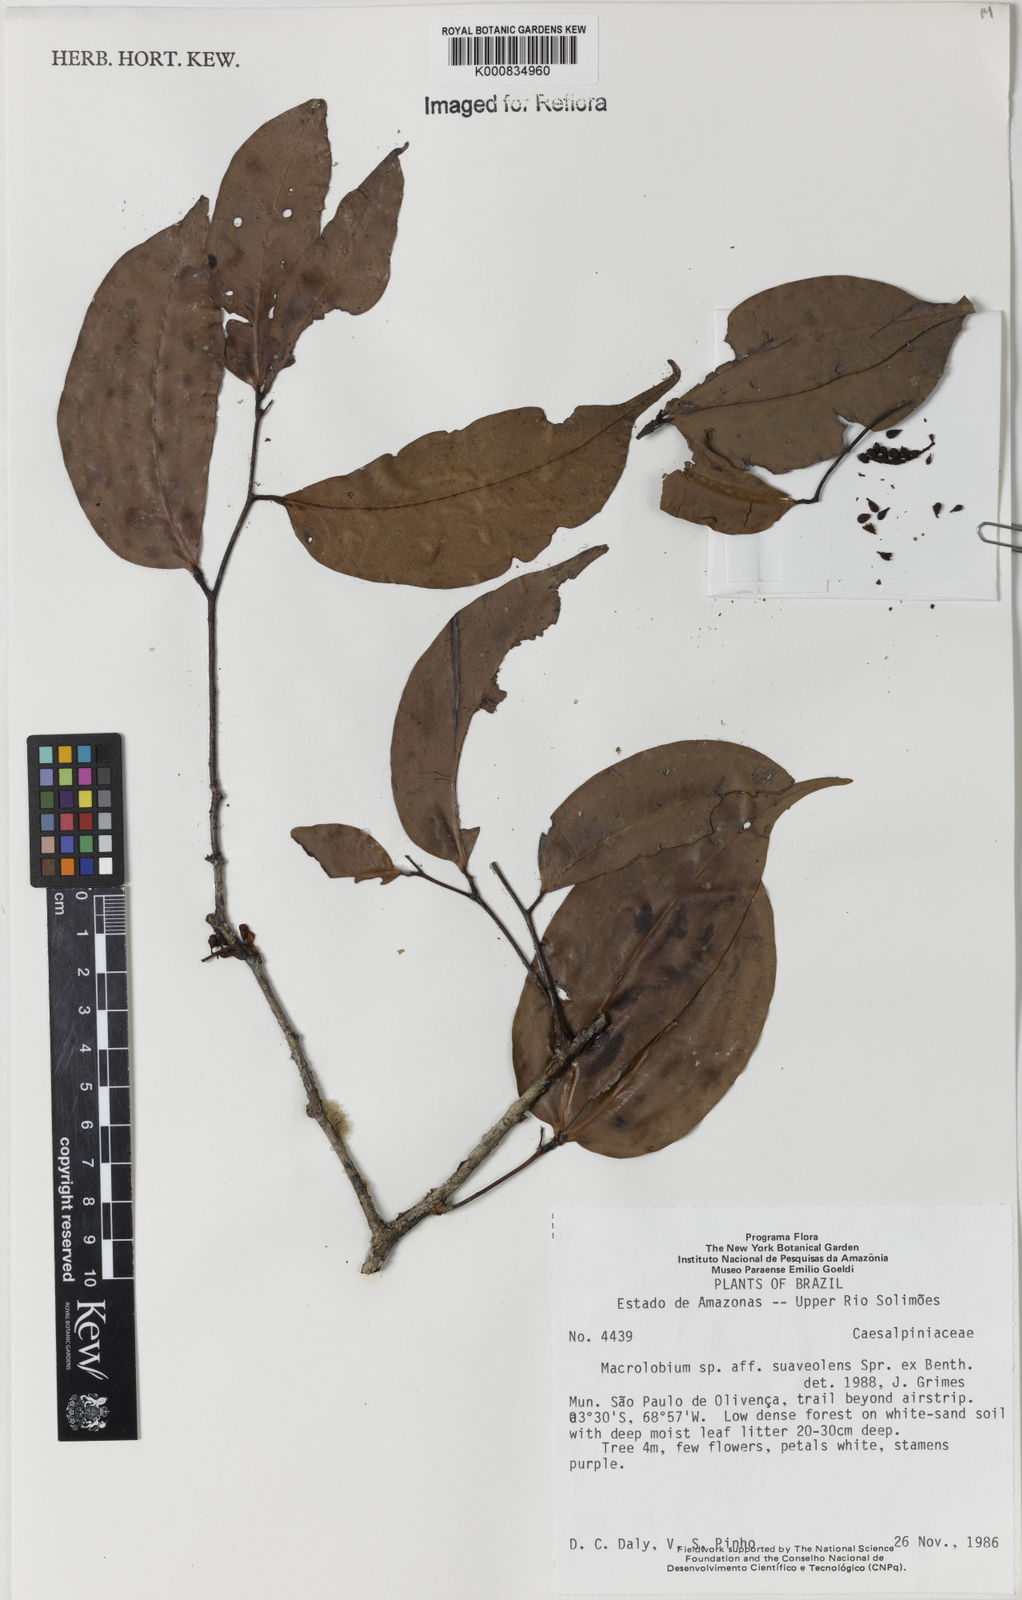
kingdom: Plantae
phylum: Tracheophyta
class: Magnoliopsida
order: Fabales
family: Fabaceae
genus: Macrolobium
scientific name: Macrolobium suaveolens
